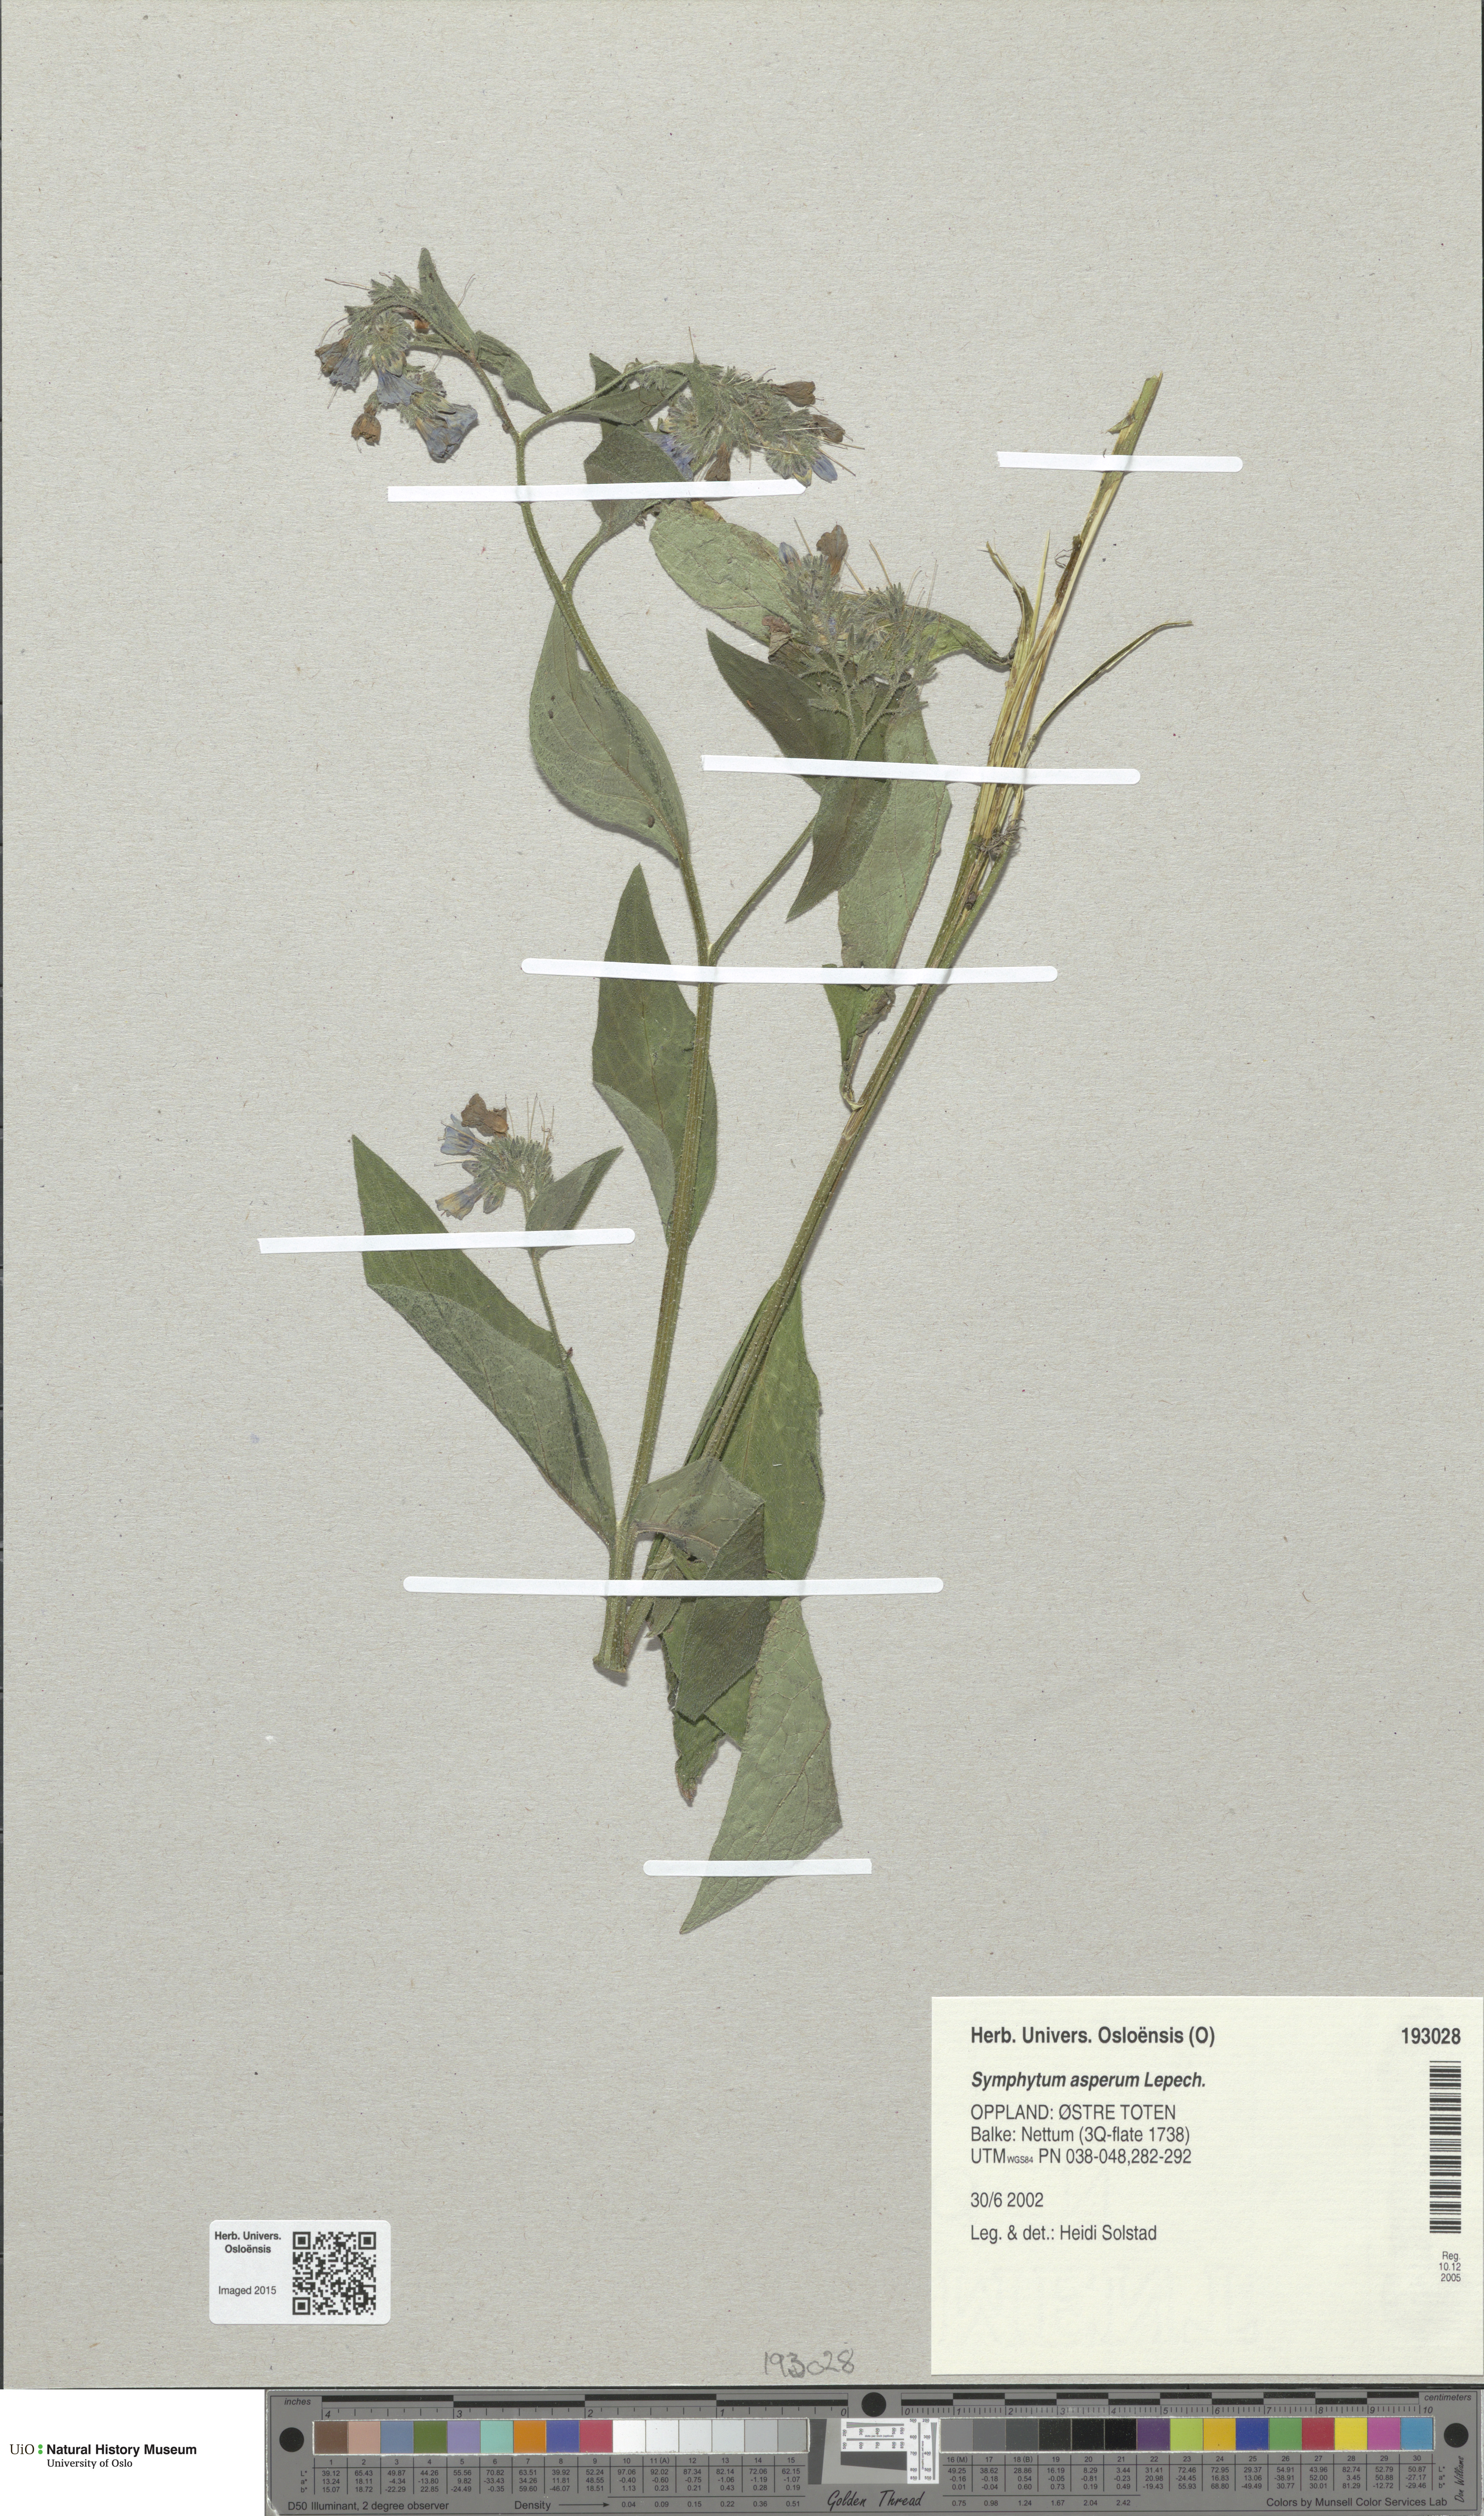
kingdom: Plantae
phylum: Tracheophyta
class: Magnoliopsida
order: Boraginales
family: Boraginaceae
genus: Symphytum
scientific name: Symphytum asperum
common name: Prickly comfrey
